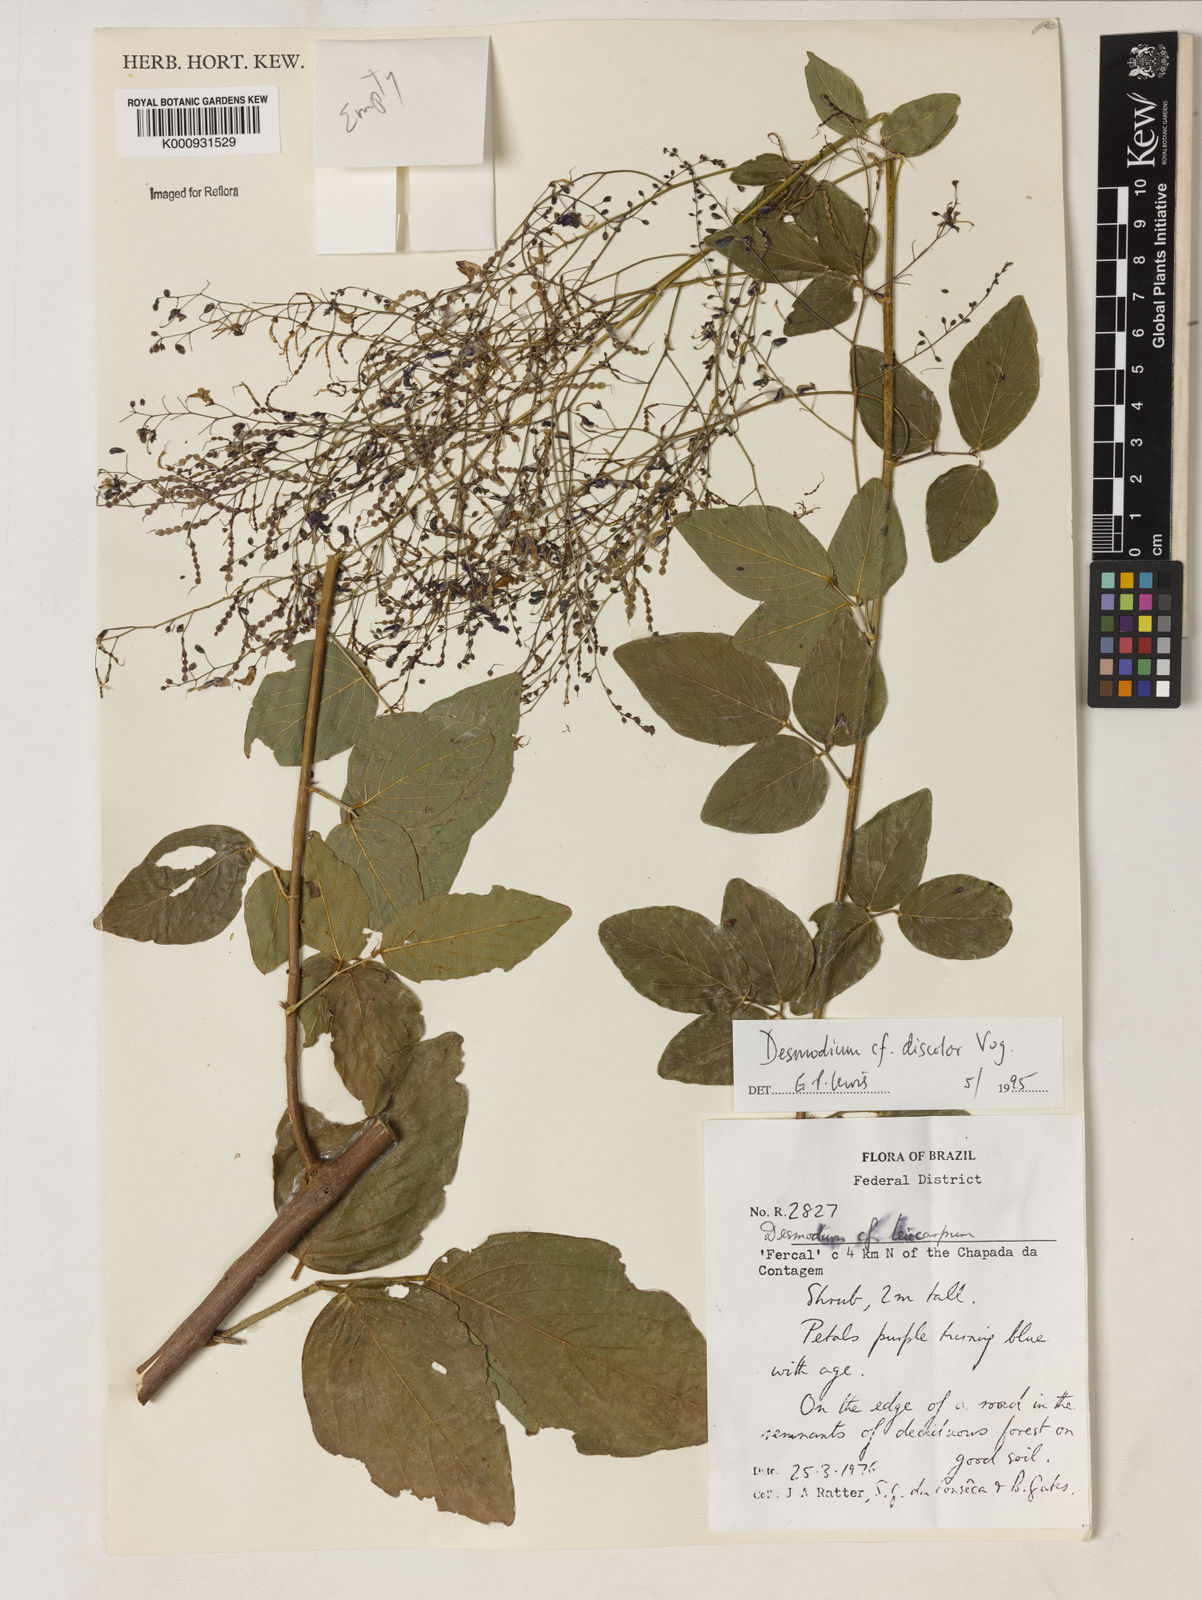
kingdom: Plantae
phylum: Tracheophyta
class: Magnoliopsida
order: Fabales
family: Fabaceae
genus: Desmodium
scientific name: Desmodium subsecundum
